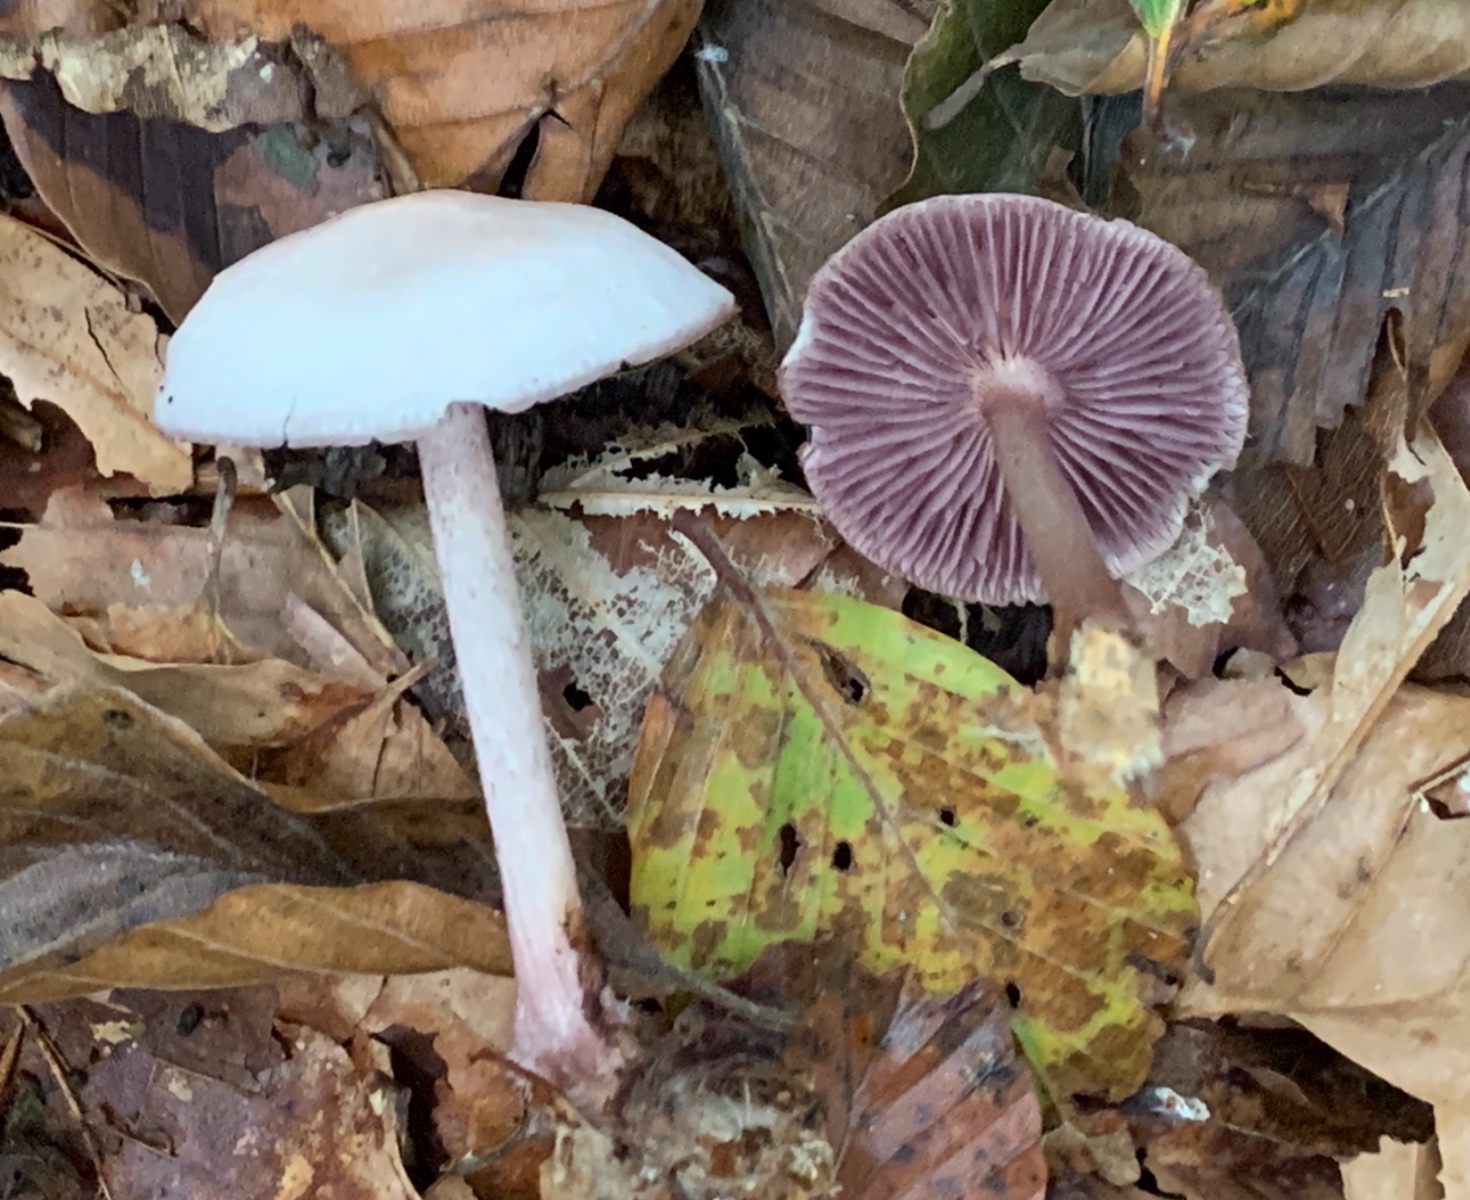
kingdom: Fungi
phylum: Basidiomycota
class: Agaricomycetes
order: Agaricales
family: Mycenaceae
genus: Mycena
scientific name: Mycena pelianthina
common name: mørkbladet huesvamp
